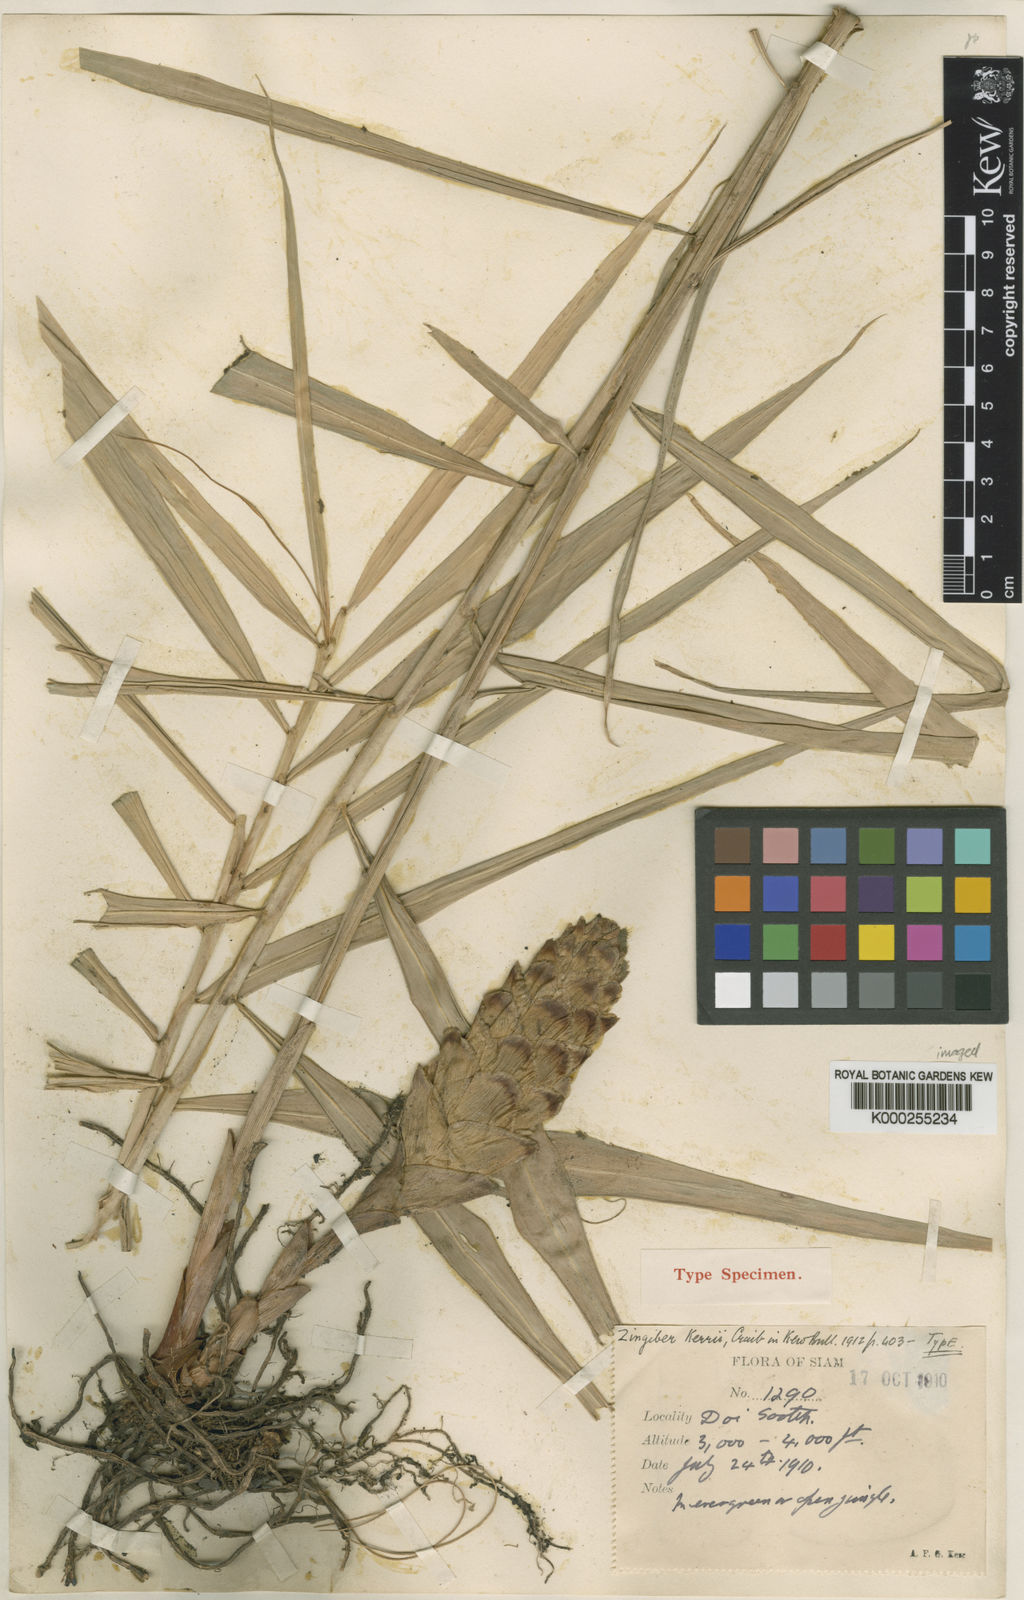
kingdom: Plantae
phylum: Tracheophyta
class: Liliopsida
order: Zingiberales
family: Zingiberaceae
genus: Zingiber
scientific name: Zingiber kerrii
